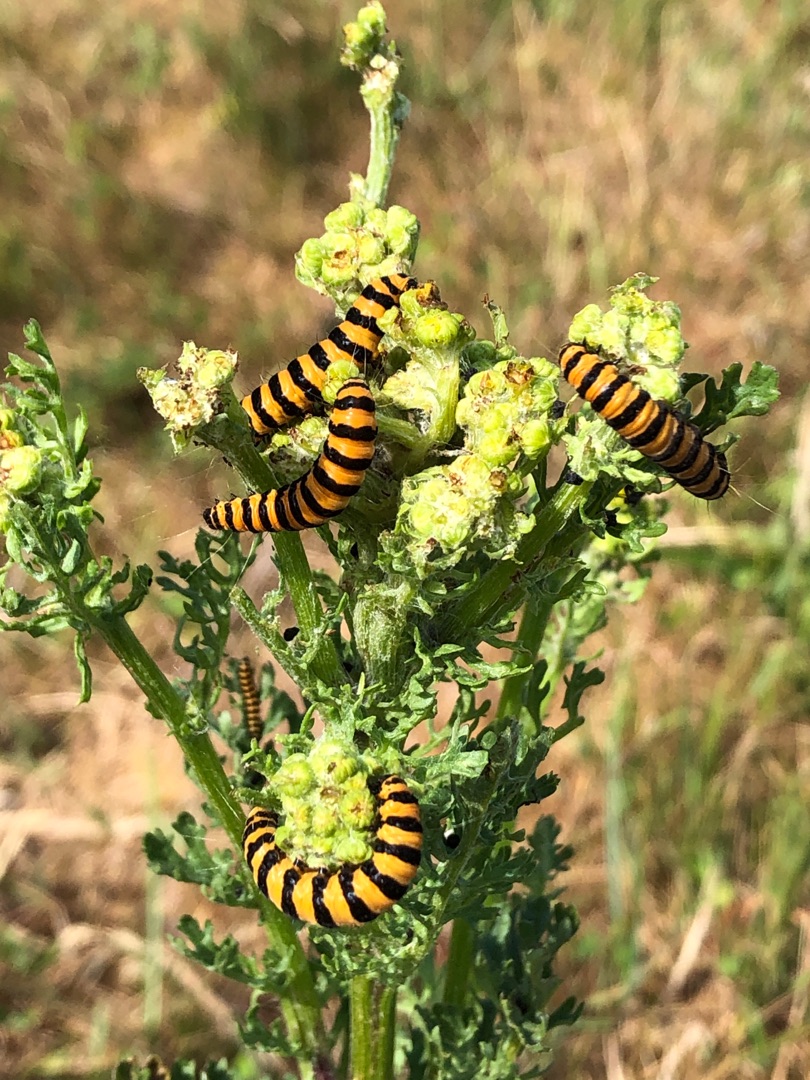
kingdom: Animalia
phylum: Arthropoda
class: Insecta
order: Lepidoptera
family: Erebidae
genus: Tyria
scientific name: Tyria jacobaeae
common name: Blodplet
